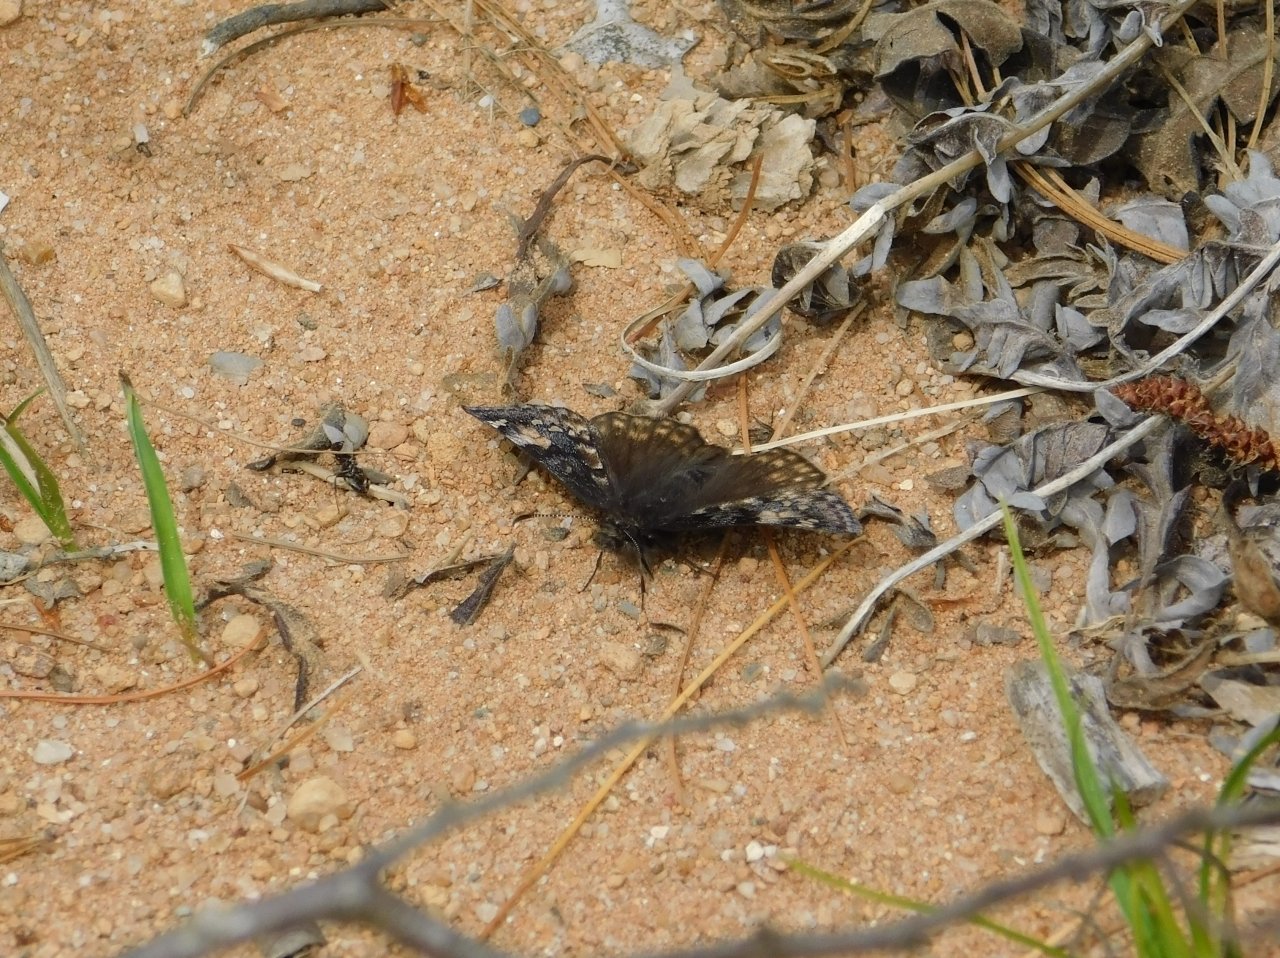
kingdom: Animalia
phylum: Arthropoda
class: Insecta
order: Lepidoptera
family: Hesperiidae
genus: Gesta
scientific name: Gesta
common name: Juvenal's Duskywing
